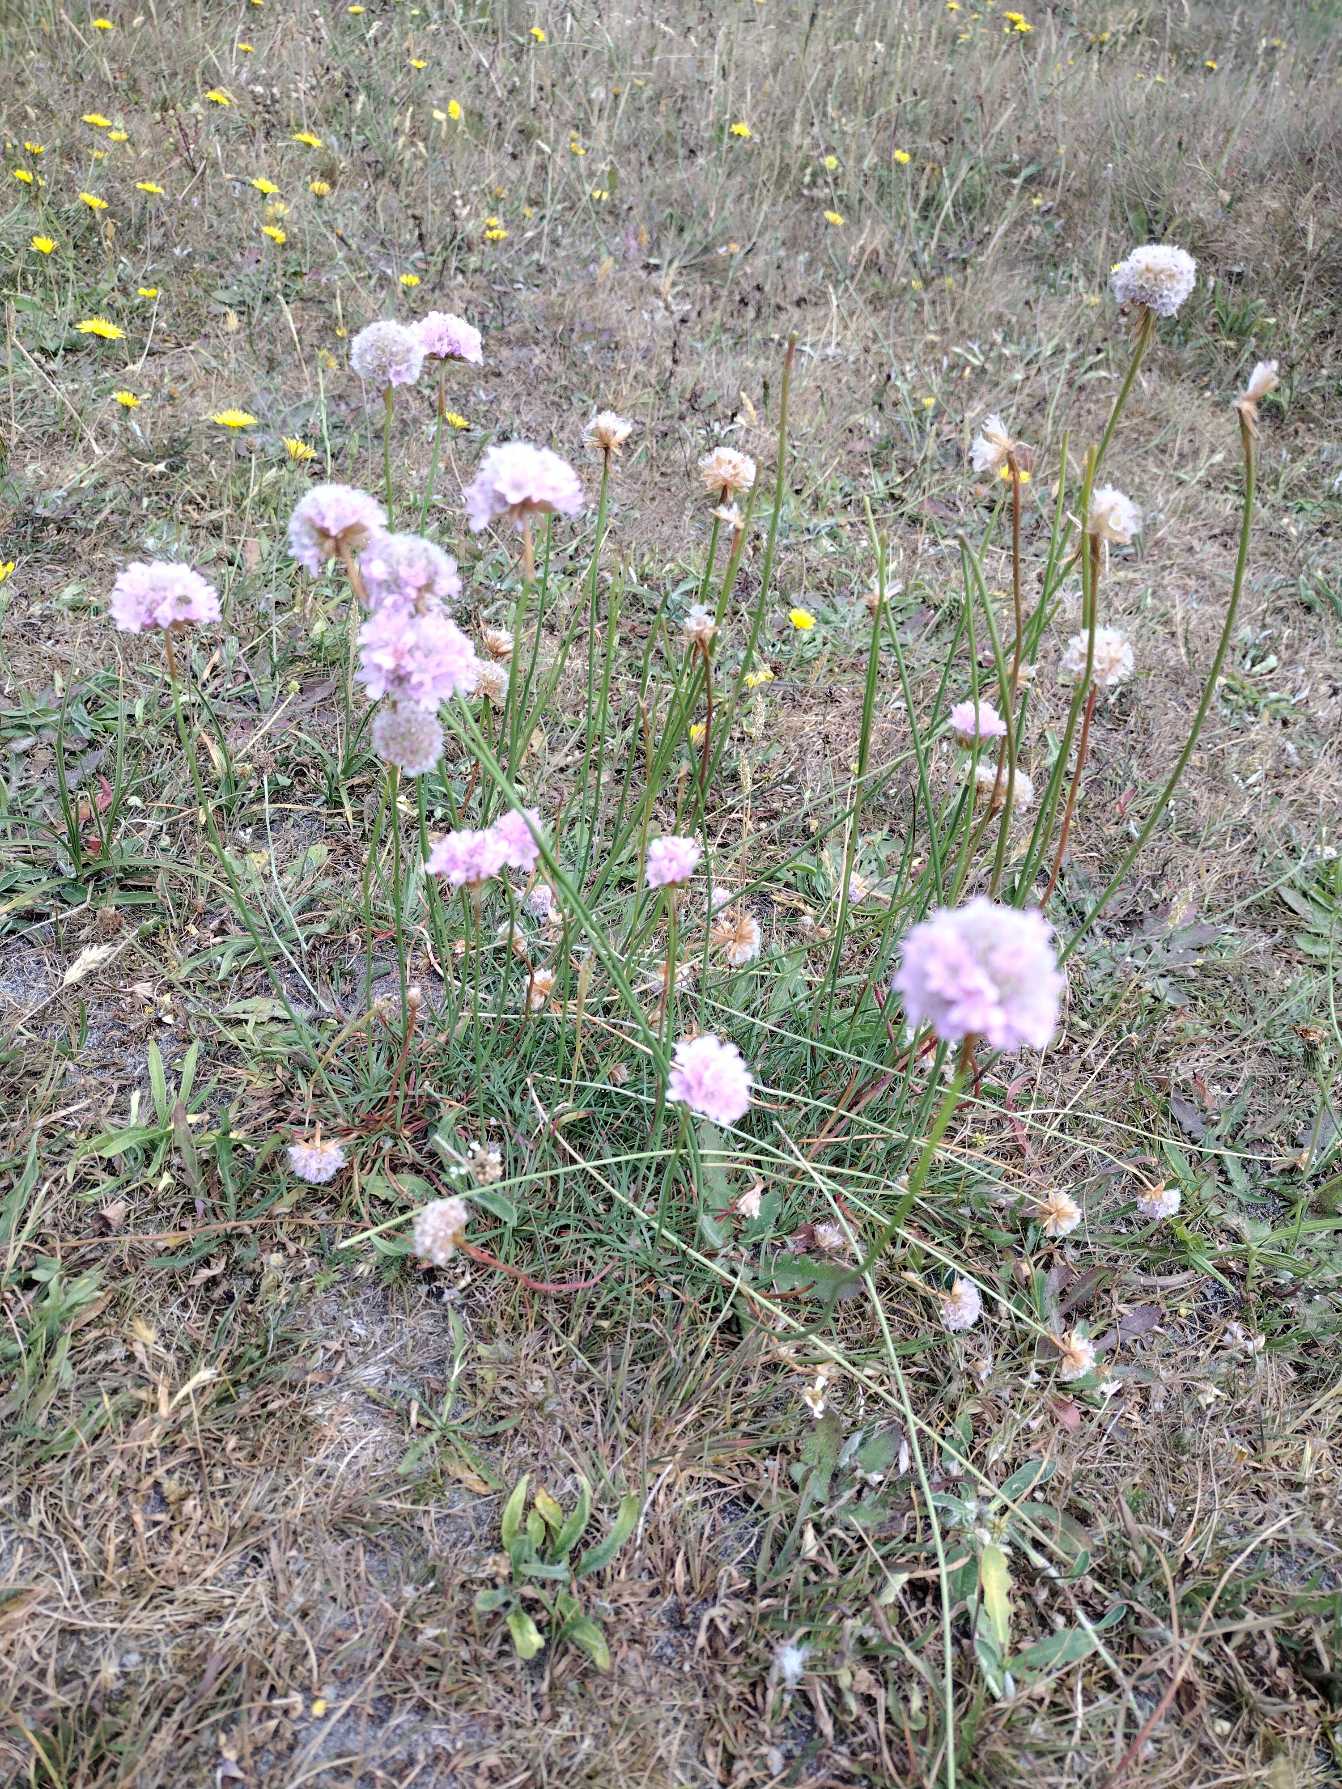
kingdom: Plantae
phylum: Tracheophyta
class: Magnoliopsida
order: Caryophyllales
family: Plumbaginaceae
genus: Armeria
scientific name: Armeria maritima
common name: Engelskgræs
